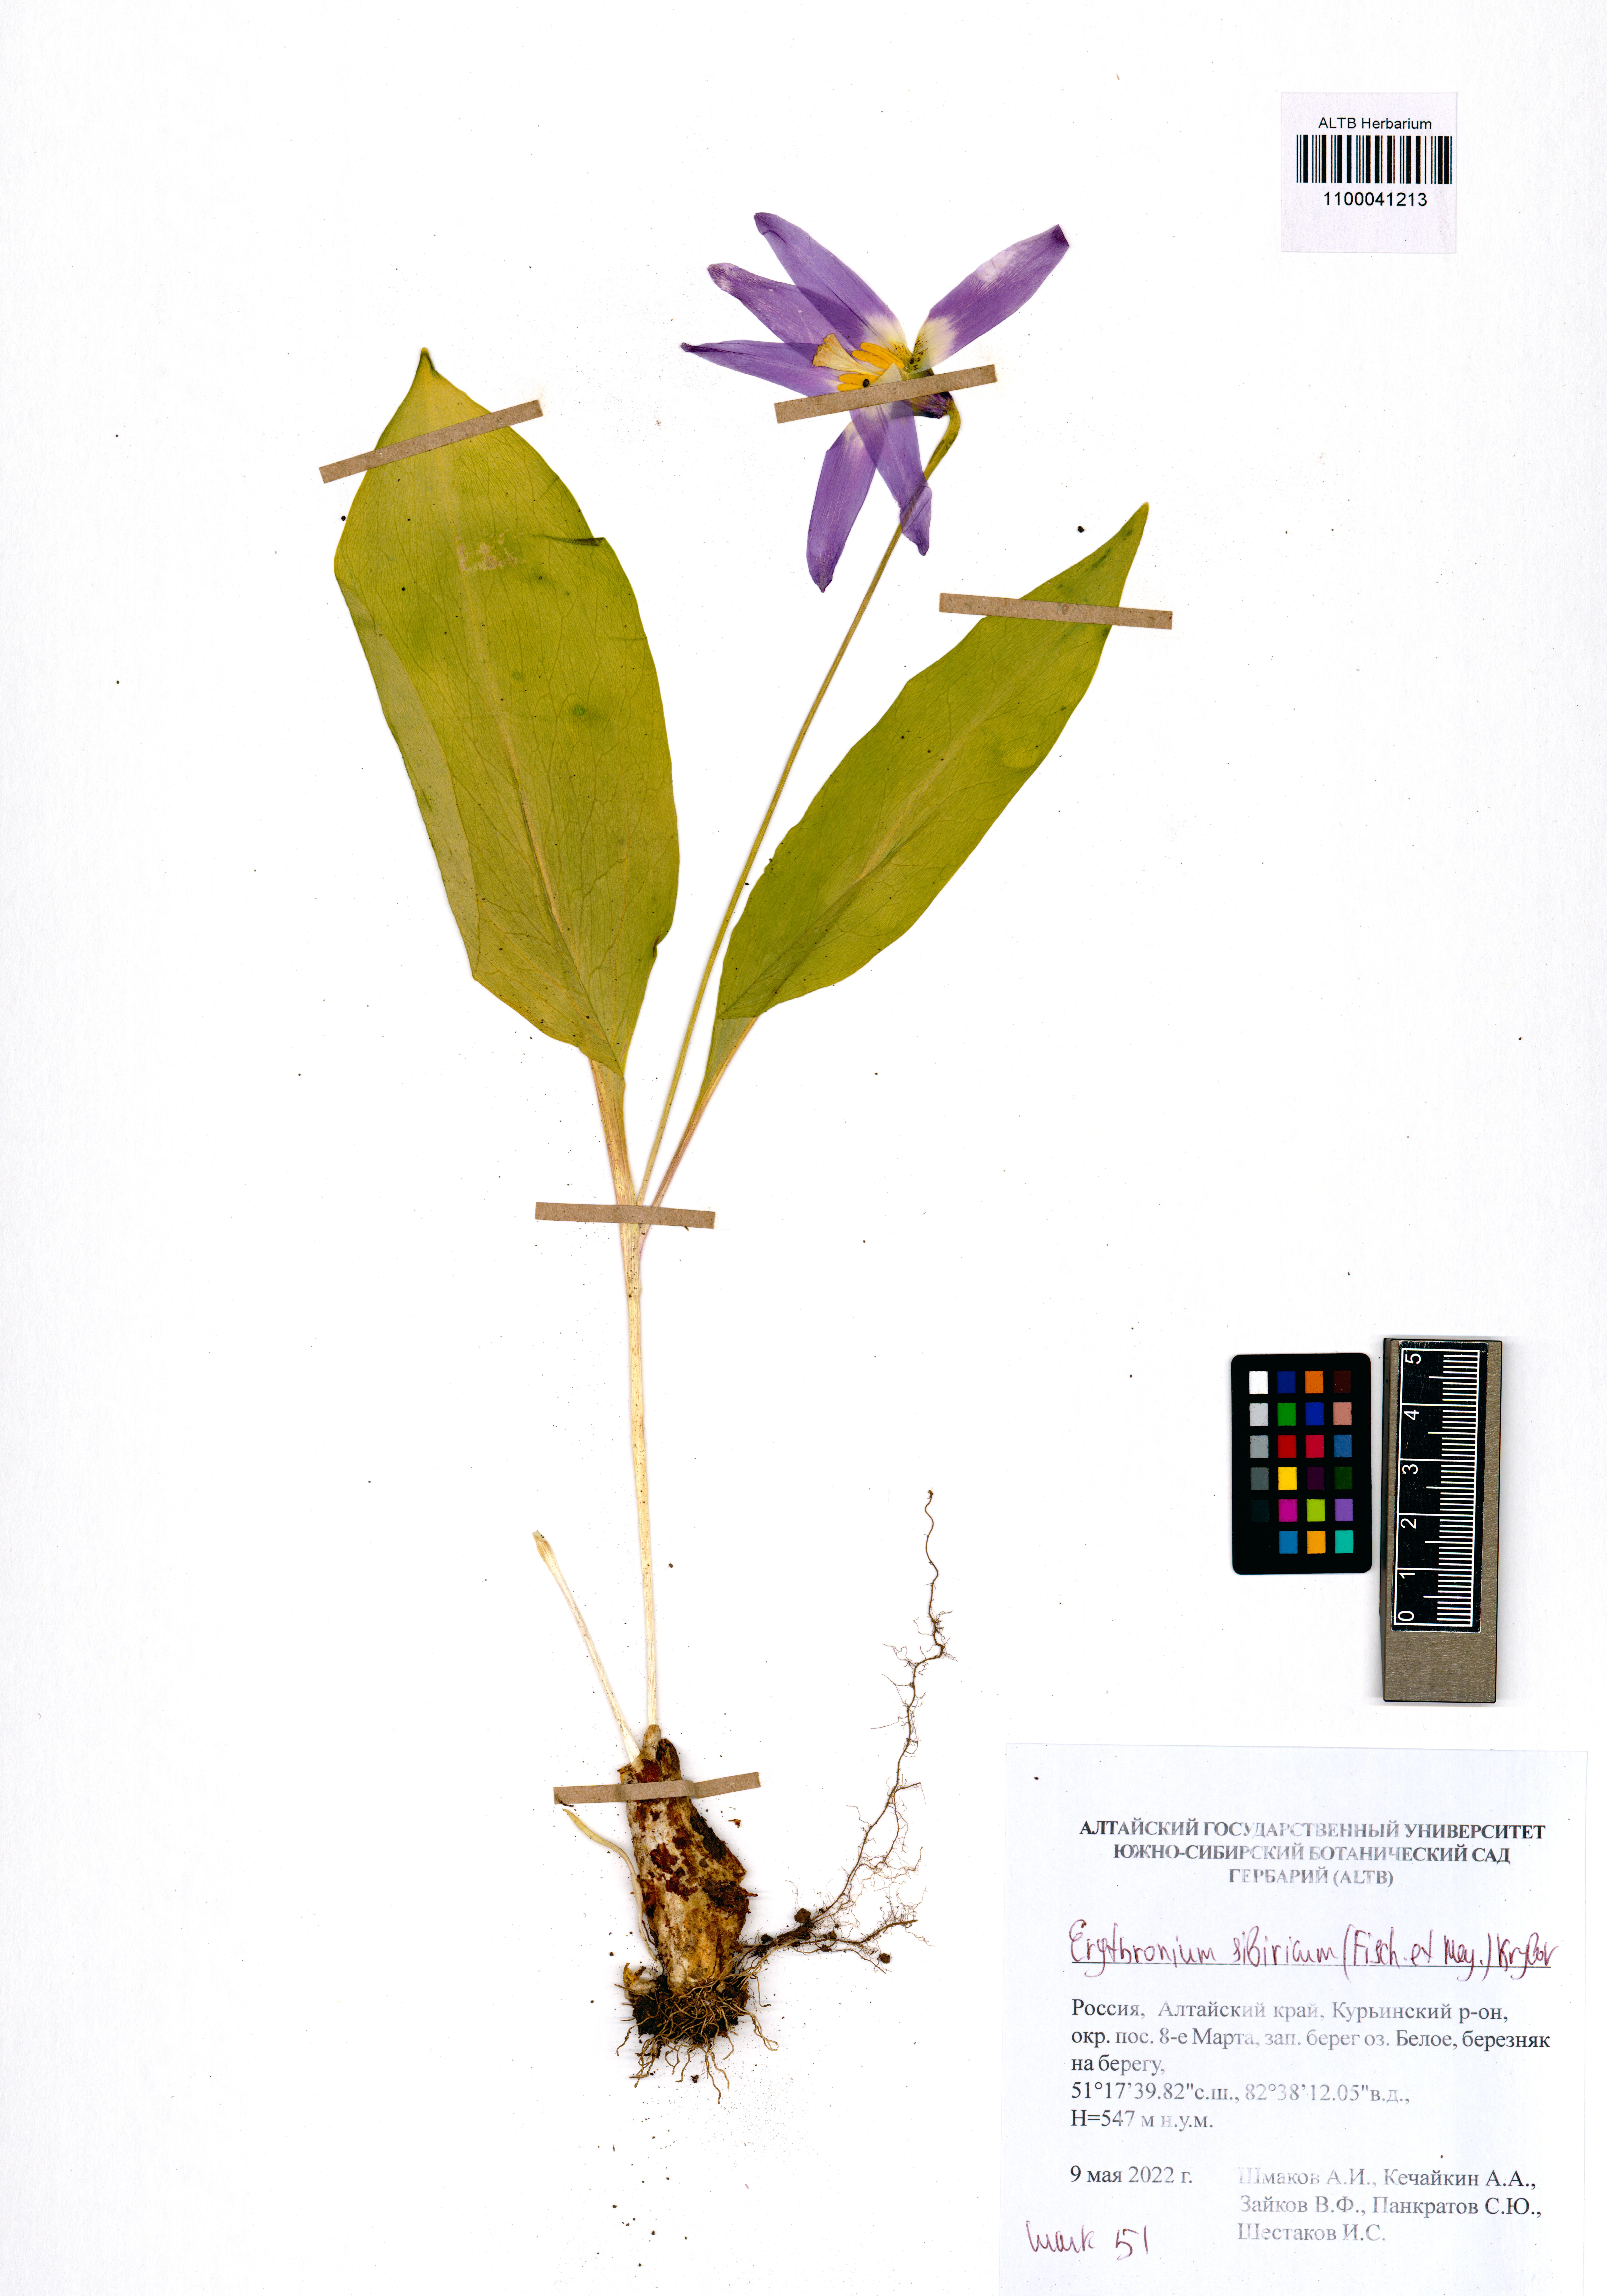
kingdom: Plantae
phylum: Tracheophyta
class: Liliopsida
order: Liliales
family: Liliaceae
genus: Erythronium
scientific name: Erythronium sibiricum
